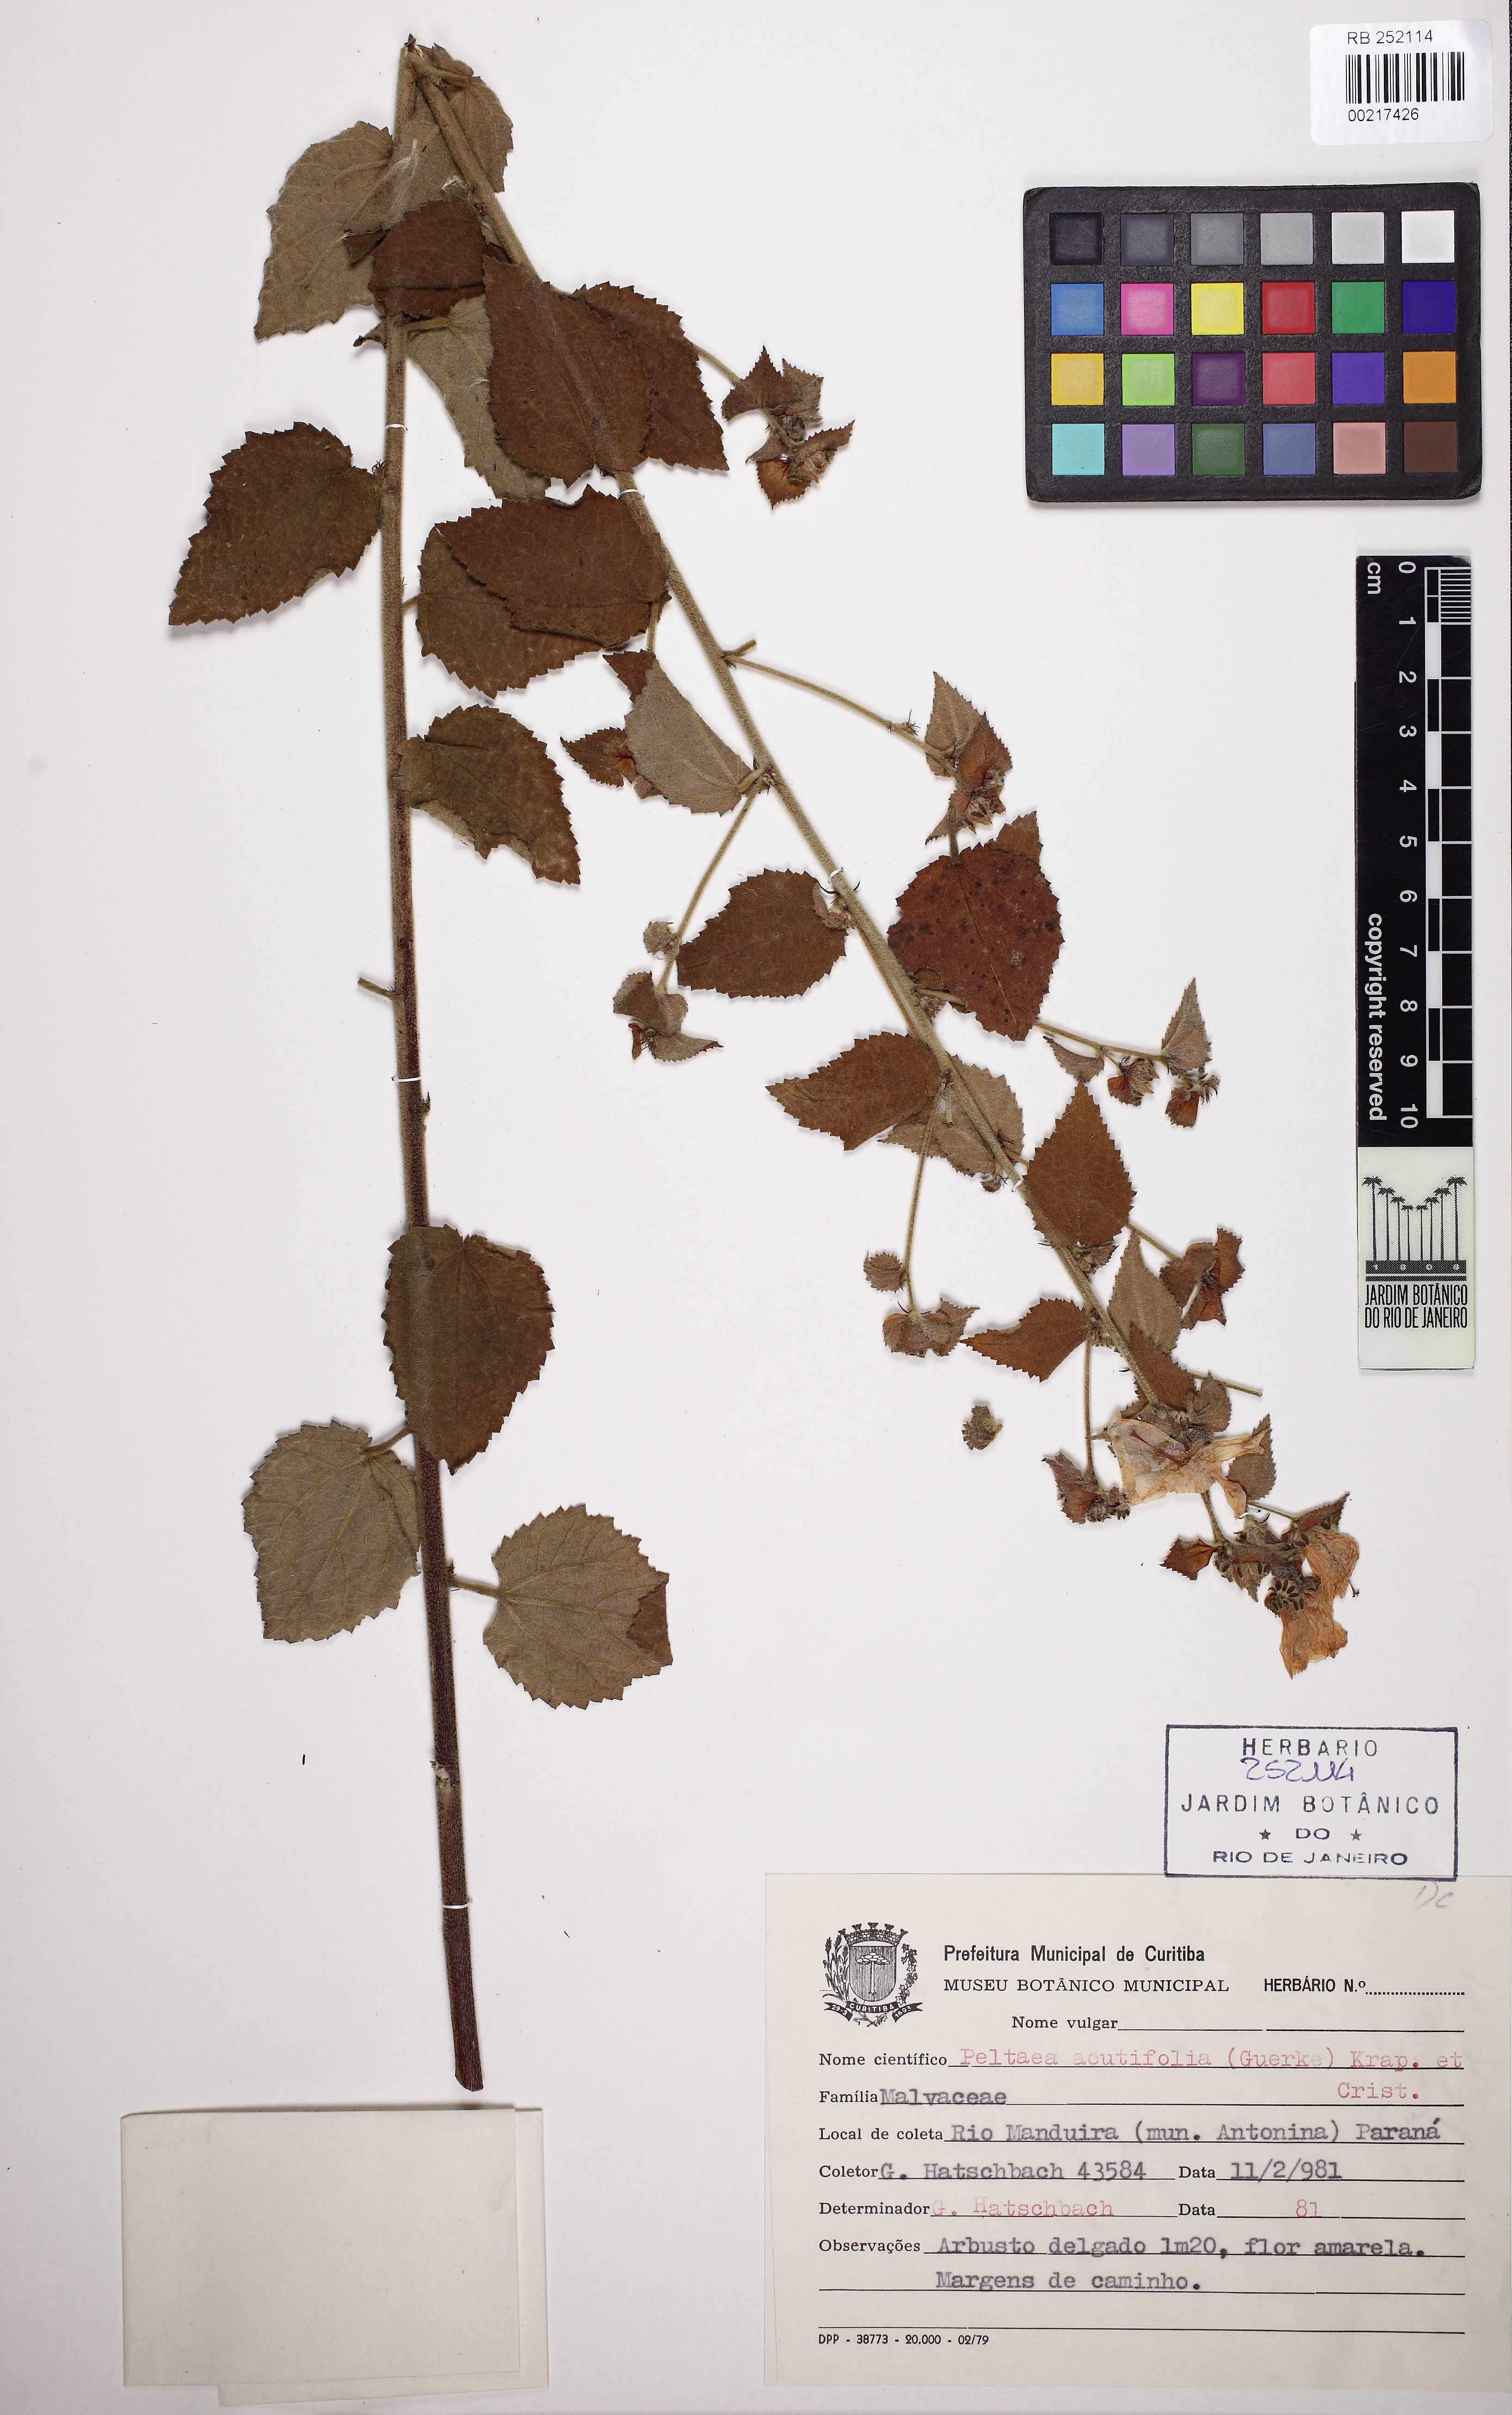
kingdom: Plantae
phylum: Tracheophyta
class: Magnoliopsida
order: Malvales
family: Malvaceae
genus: Peltaea
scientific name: Peltaea obsita
